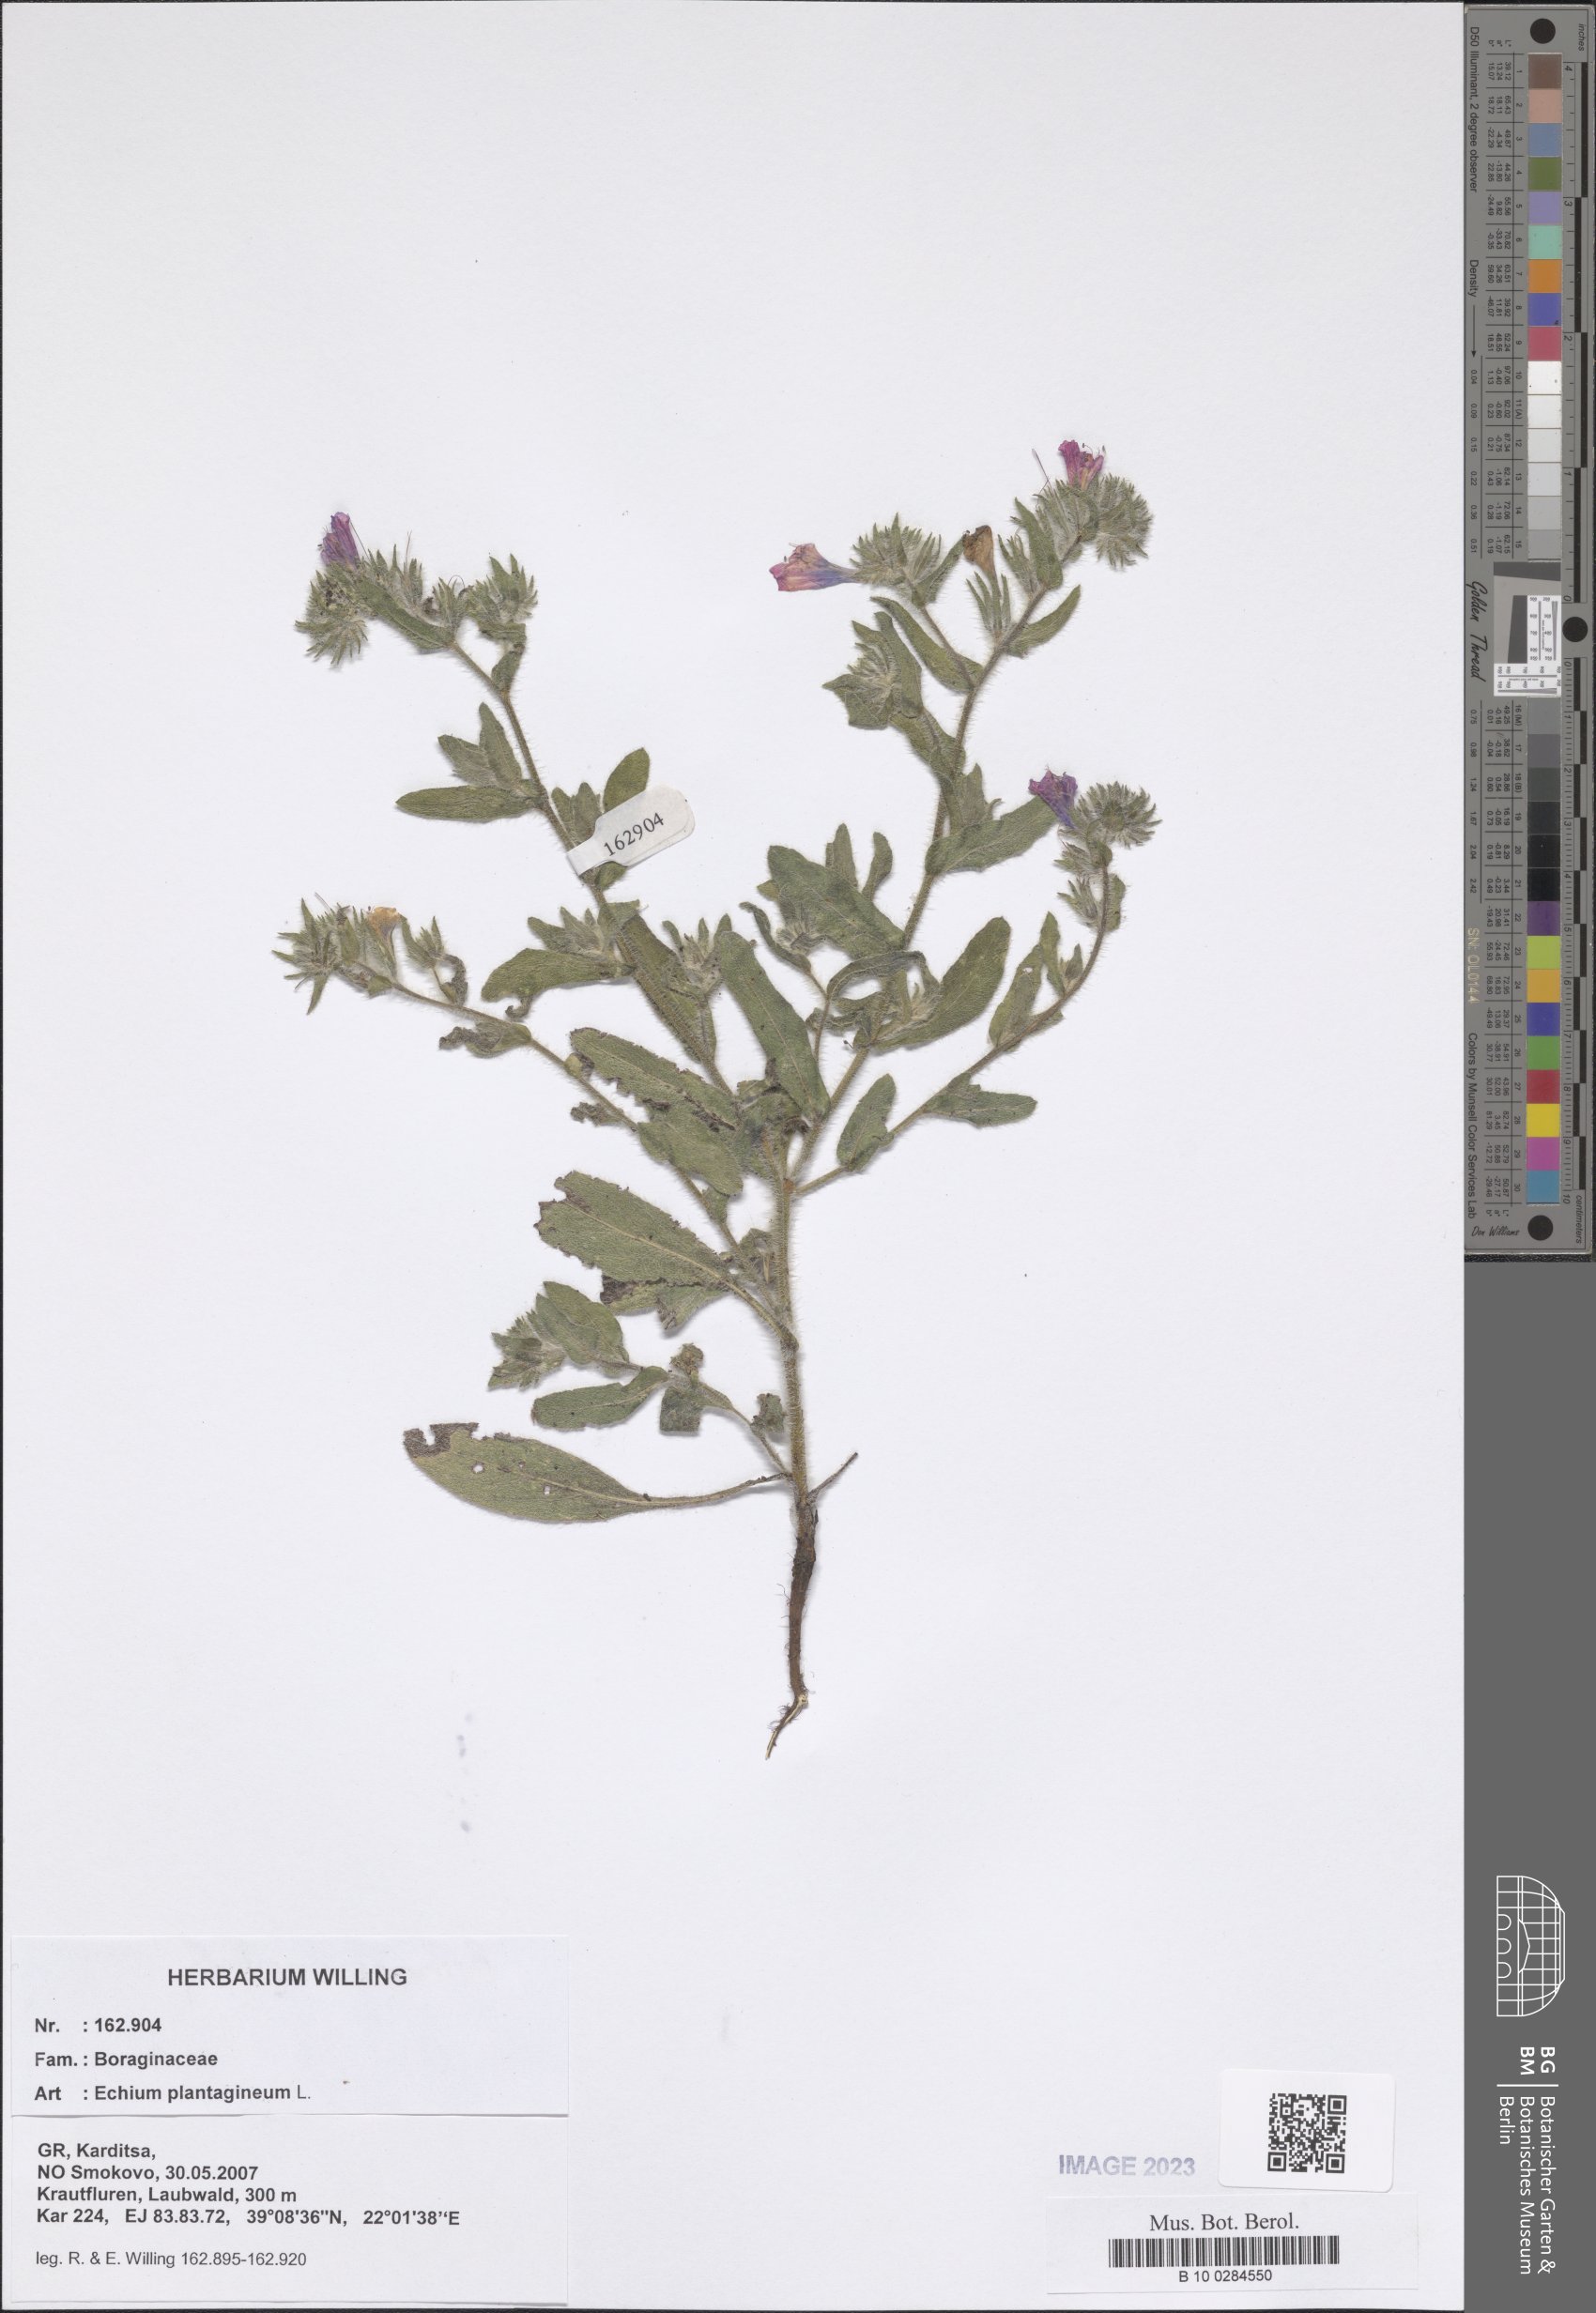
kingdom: Plantae
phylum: Tracheophyta
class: Magnoliopsida
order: Boraginales
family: Boraginaceae
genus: Echium
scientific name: Echium plantagineum
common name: Purple viper's-bugloss
